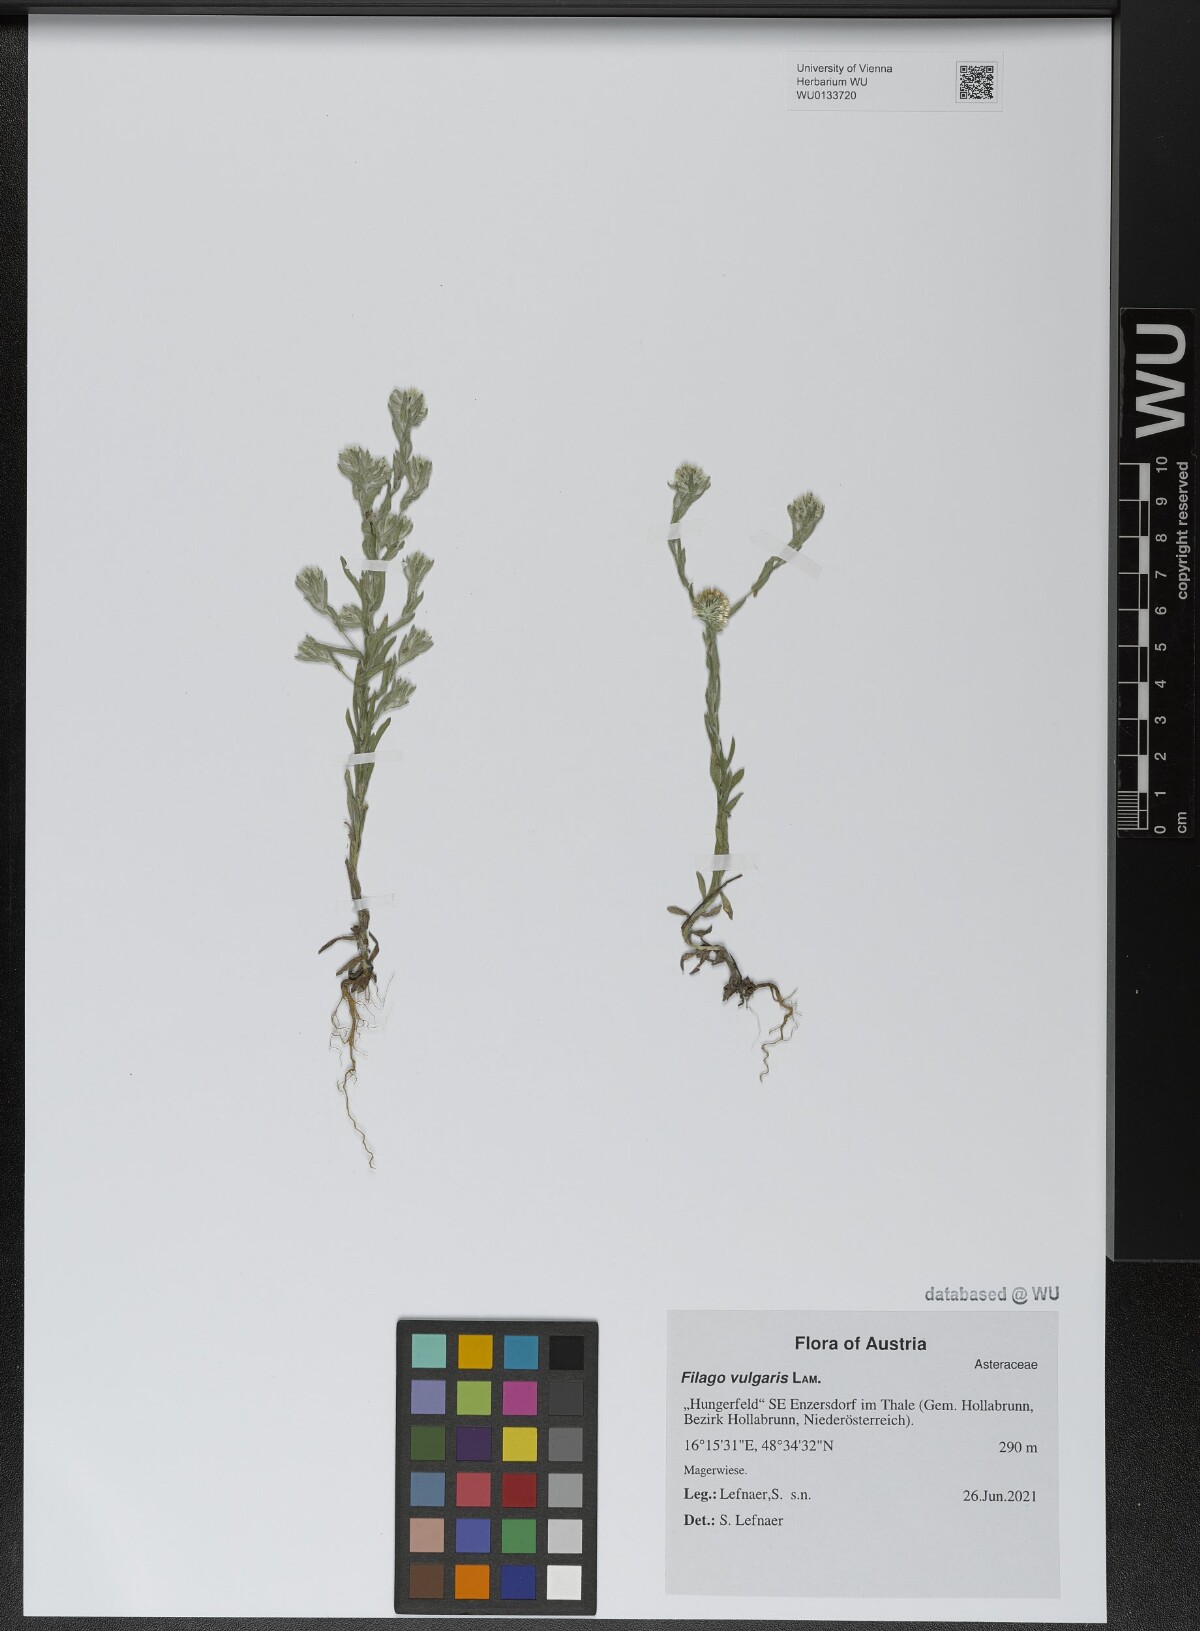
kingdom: Plantae
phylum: Tracheophyta
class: Magnoliopsida
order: Asterales
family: Asteraceae
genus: Filago
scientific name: Filago germanica
